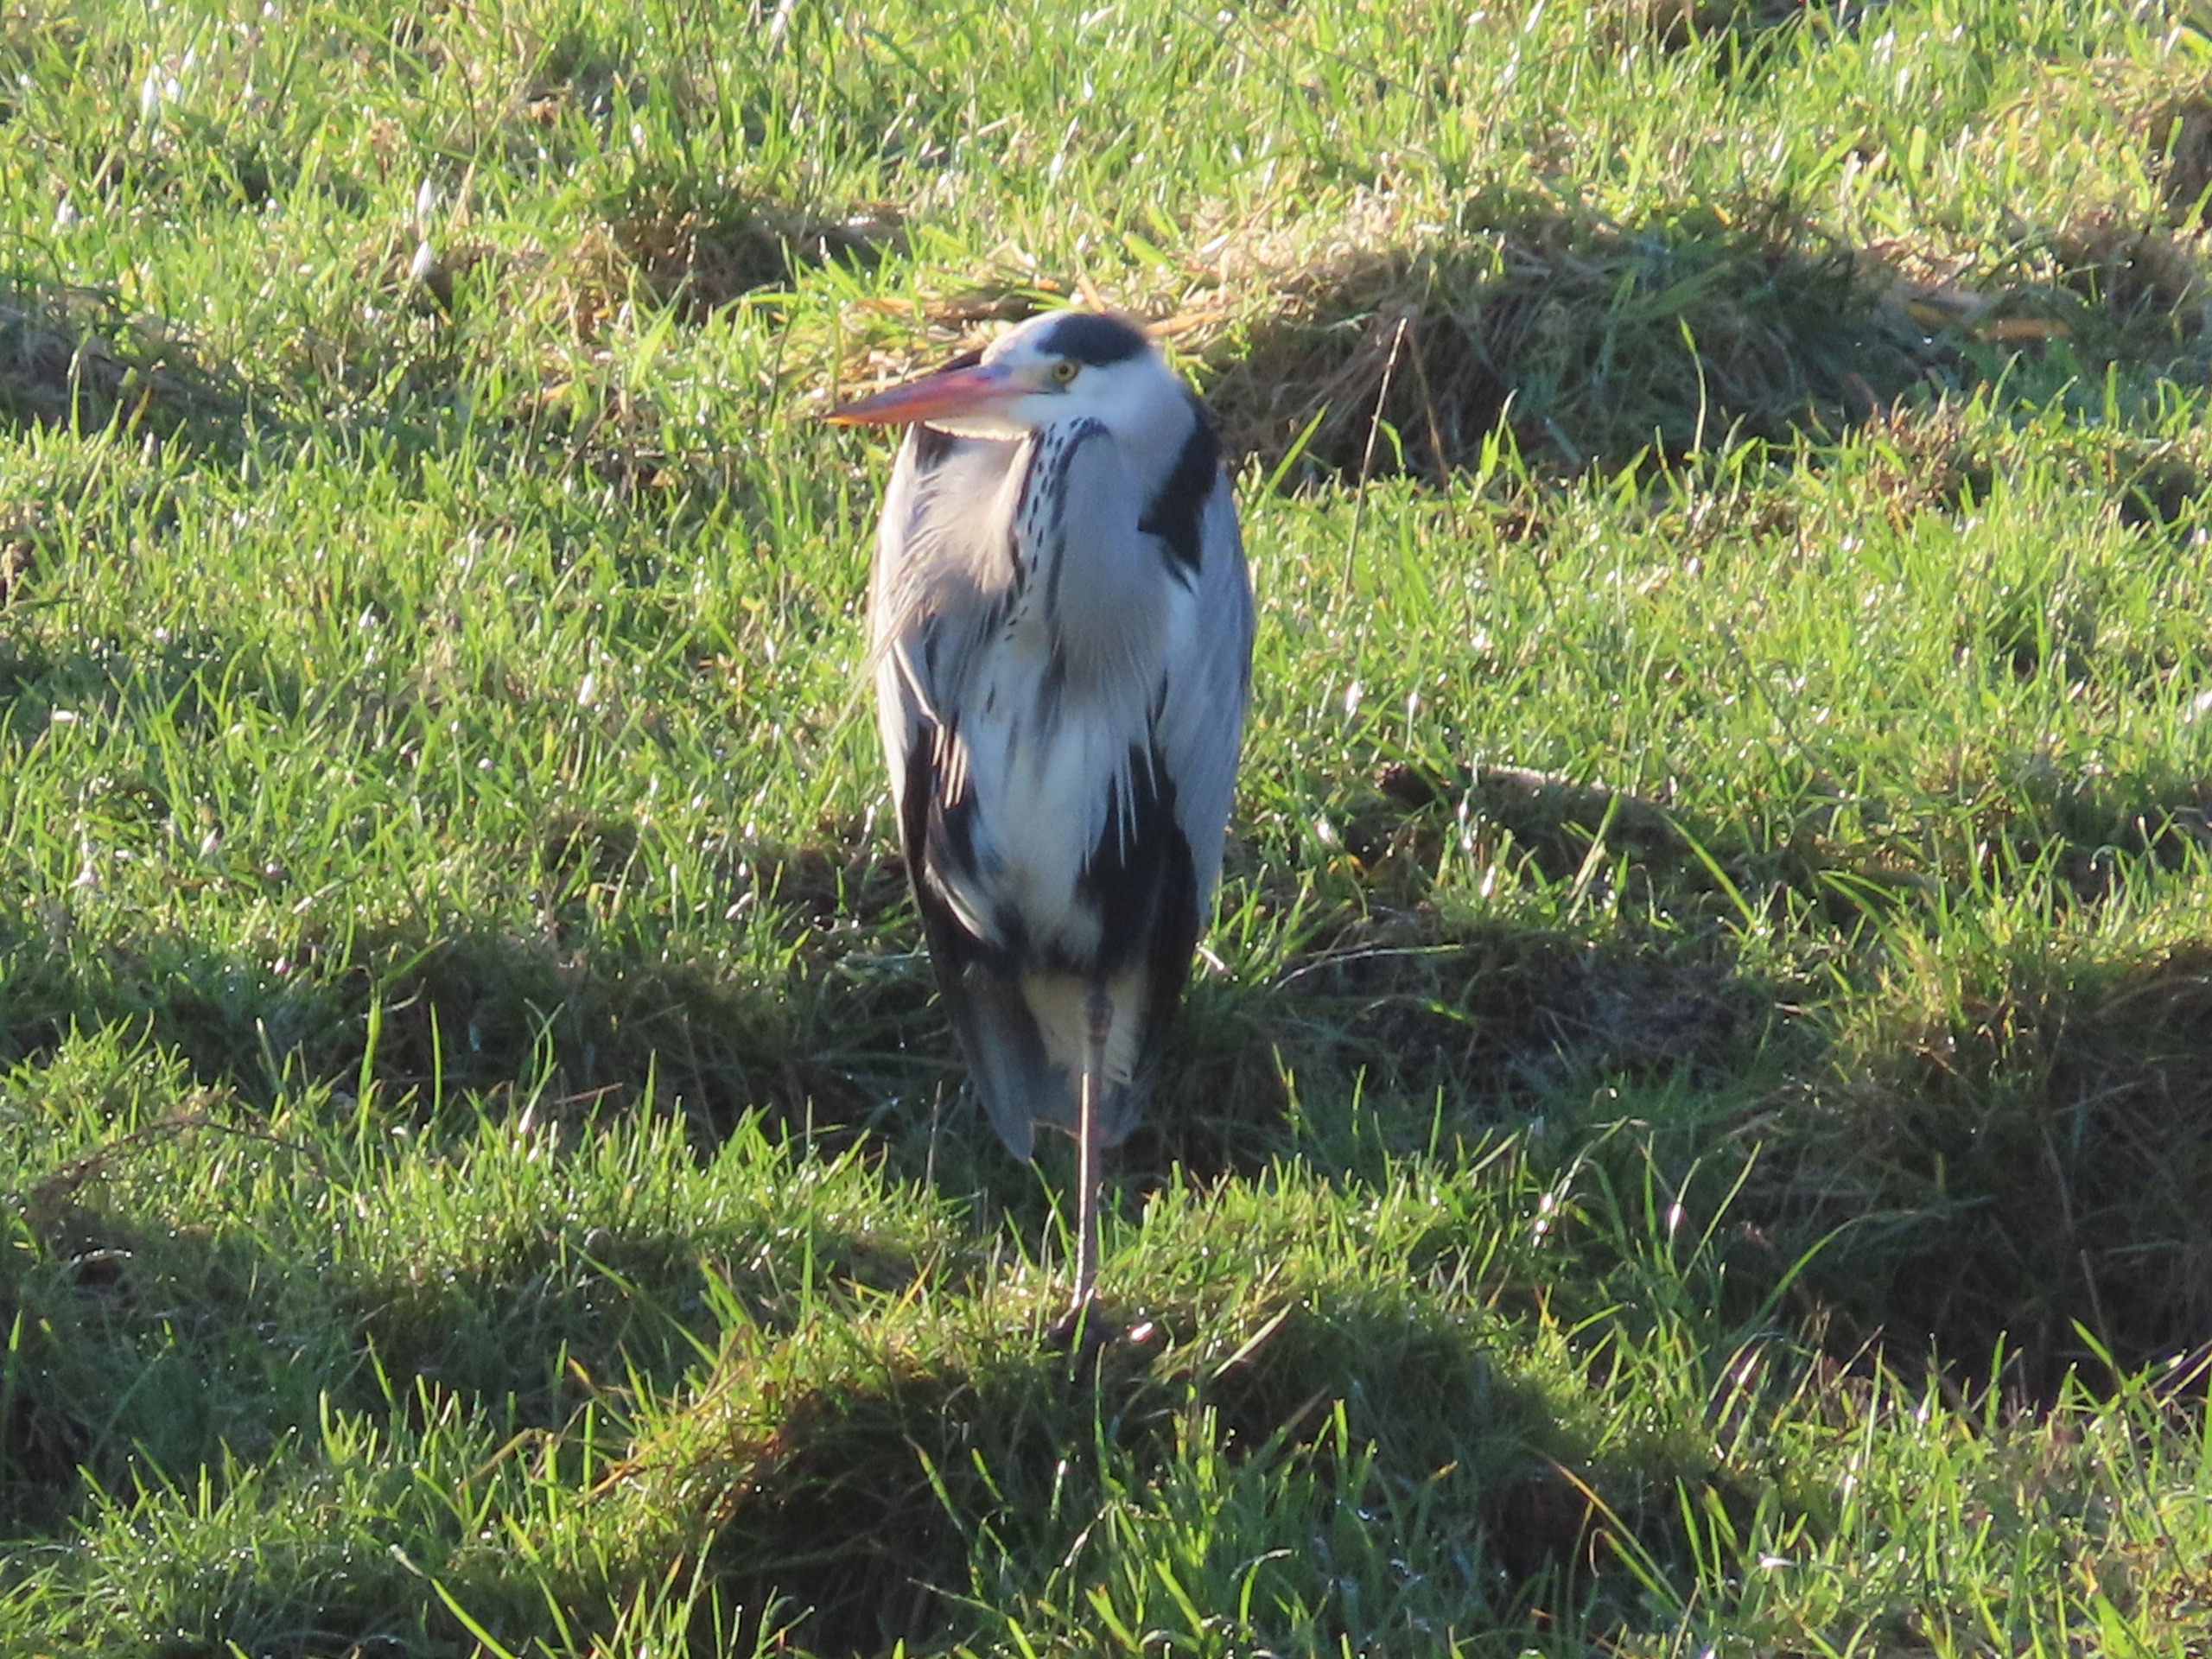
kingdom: Animalia
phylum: Chordata
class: Aves
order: Pelecaniformes
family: Ardeidae
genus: Ardea
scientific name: Ardea cinerea
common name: Fiskehejre
